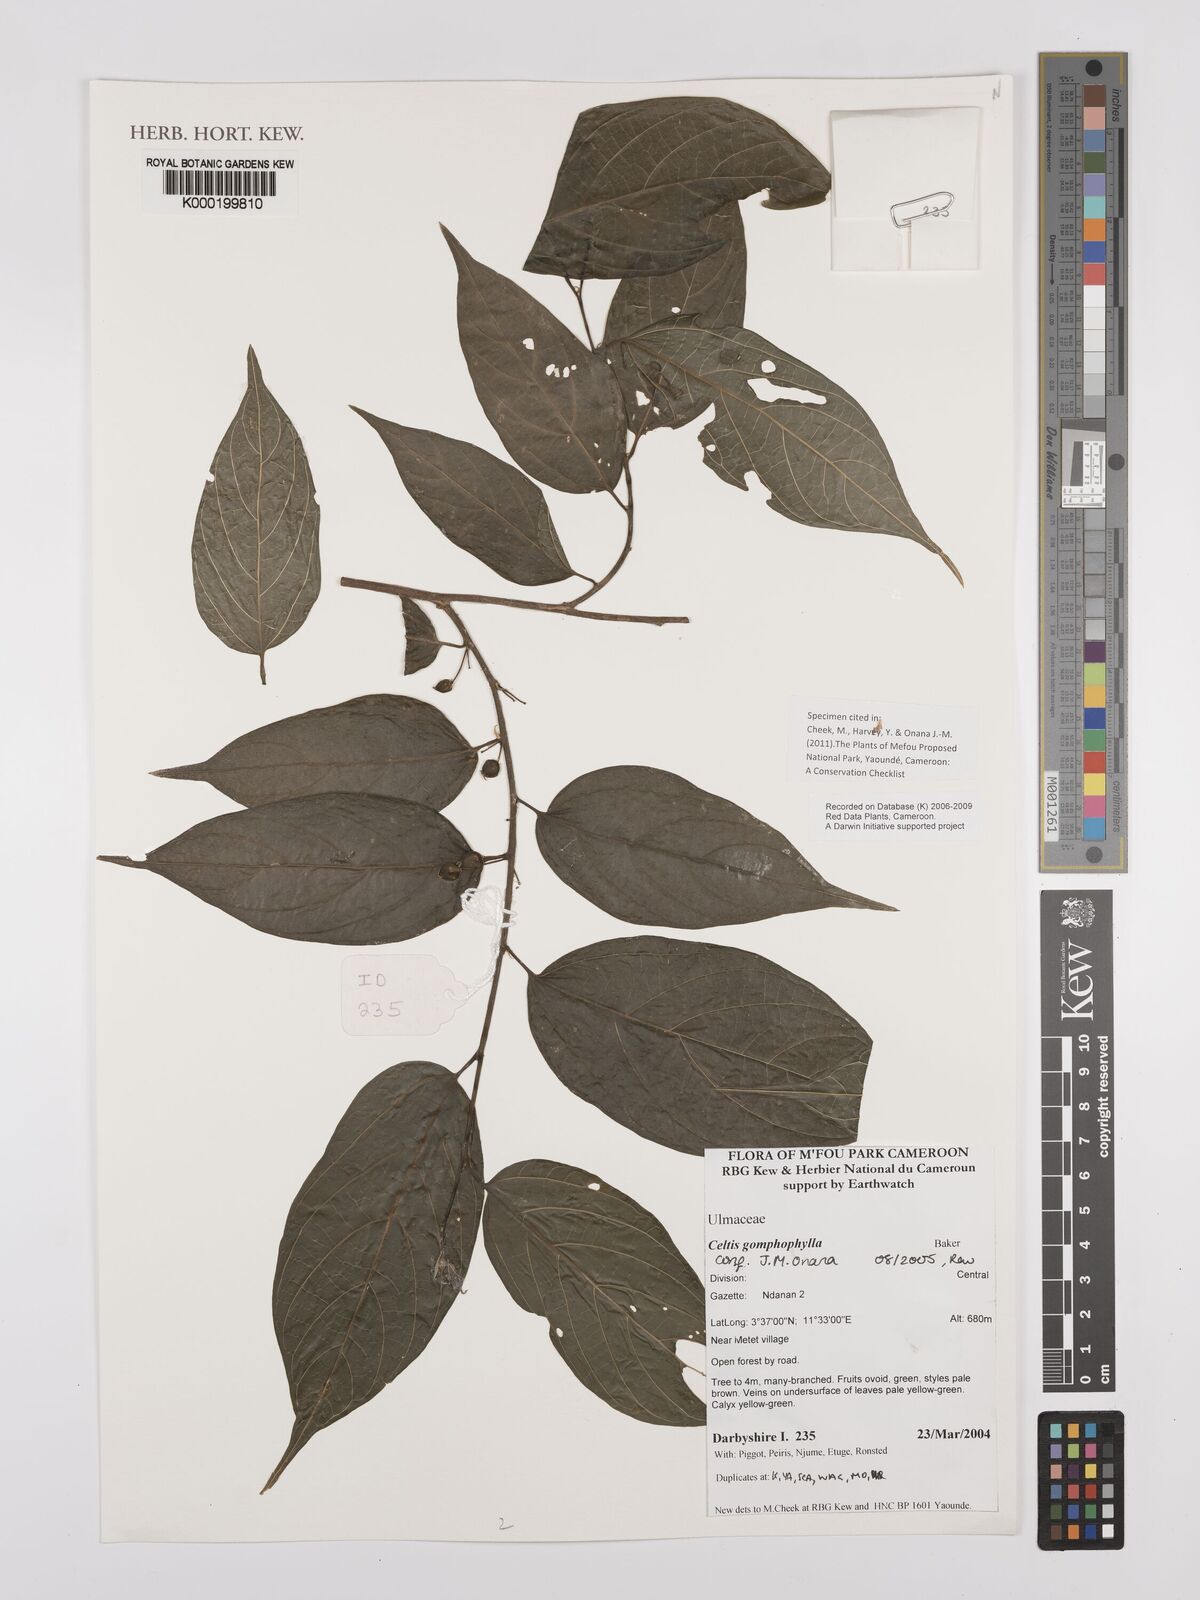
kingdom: Plantae
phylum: Tracheophyta
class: Magnoliopsida
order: Rosales
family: Cannabaceae
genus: Celtis
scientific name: Celtis gomphophylla
